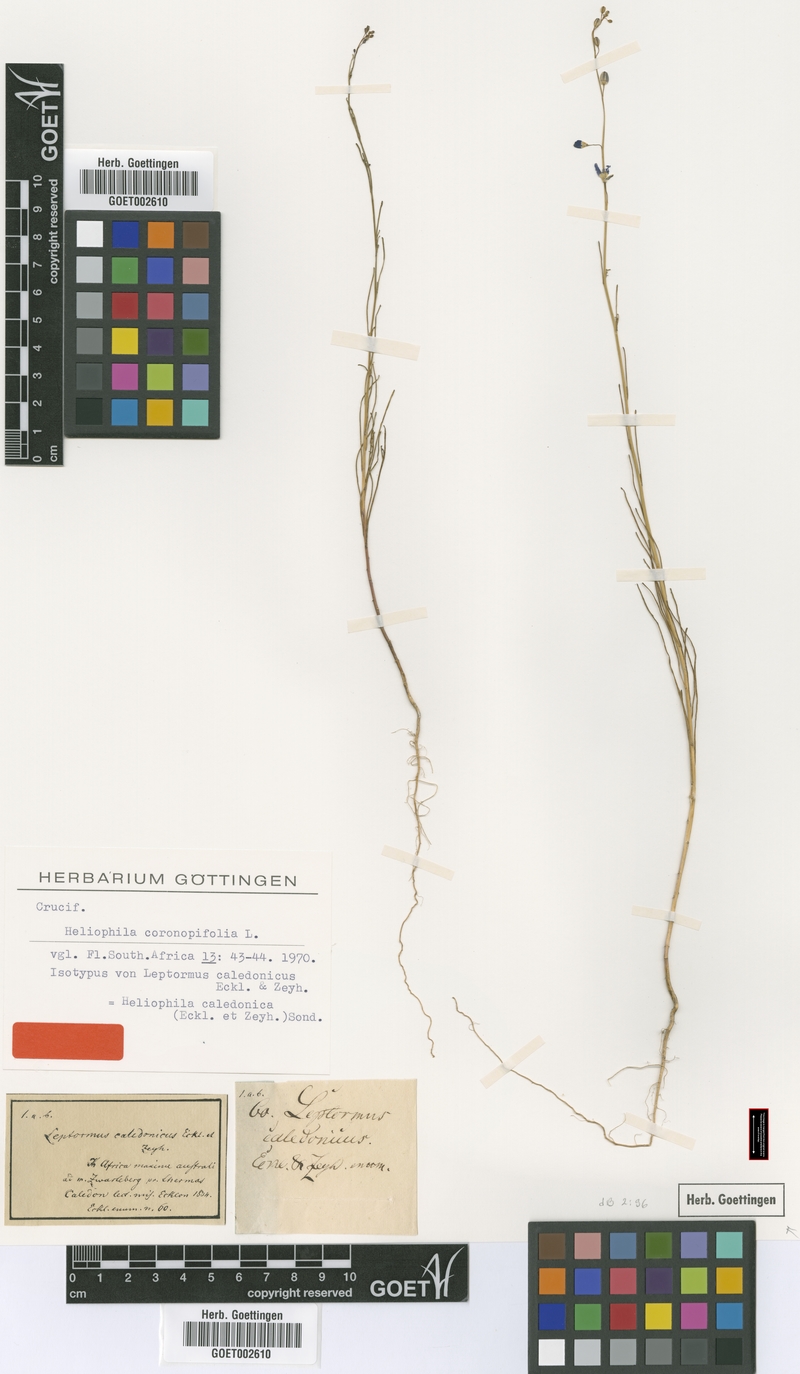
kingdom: Plantae
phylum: Tracheophyta
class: Magnoliopsida
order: Brassicales
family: Brassicaceae
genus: Heliophila
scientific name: Heliophila coronopifolia
